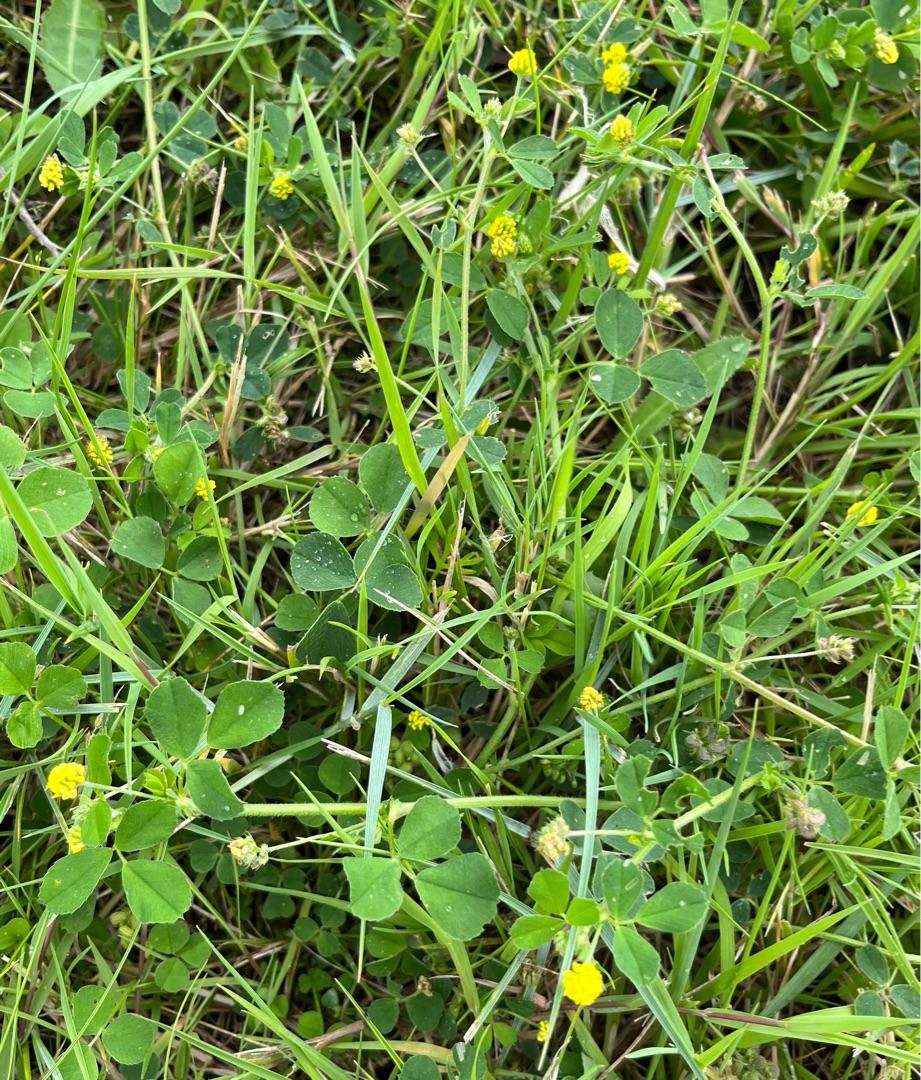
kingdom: Plantae
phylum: Tracheophyta
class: Magnoliopsida
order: Fabales
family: Fabaceae
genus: Medicago
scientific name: Medicago lupulina
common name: Humle-sneglebælg
